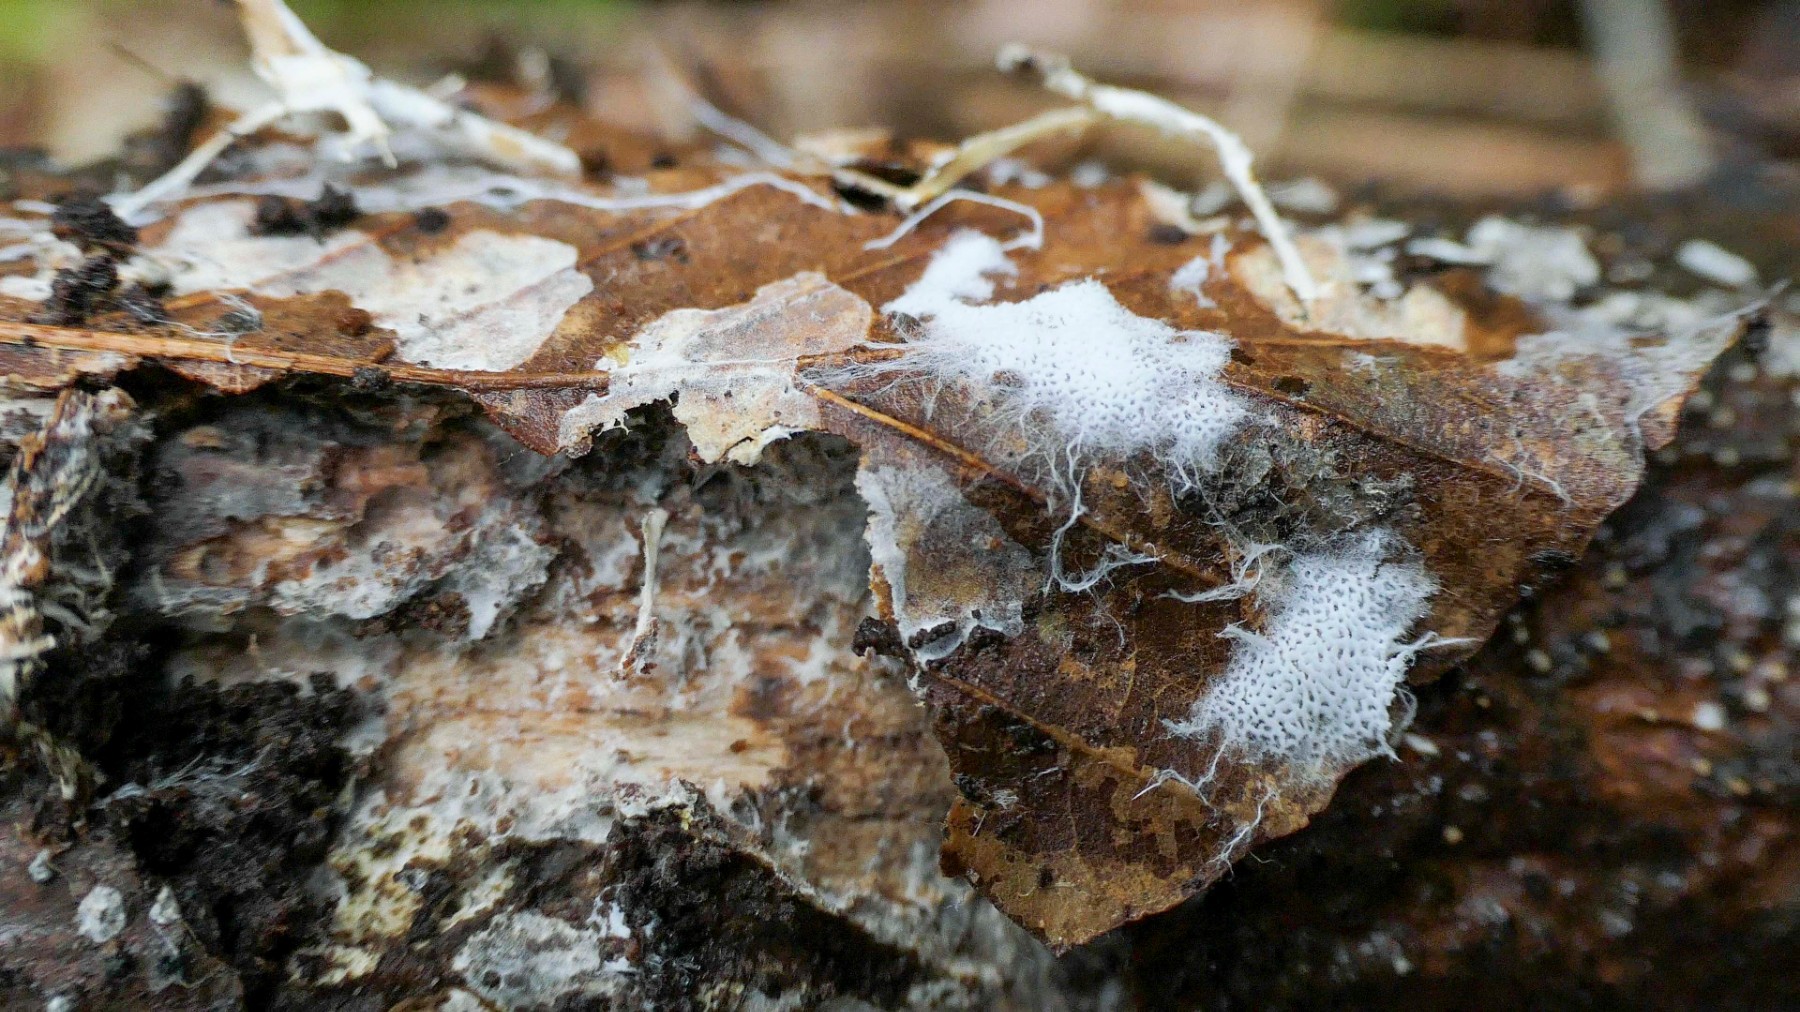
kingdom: Fungi
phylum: Basidiomycota
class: Agaricomycetes
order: Trechisporales
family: Sistotremataceae
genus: Trechispora
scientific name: Trechispora
